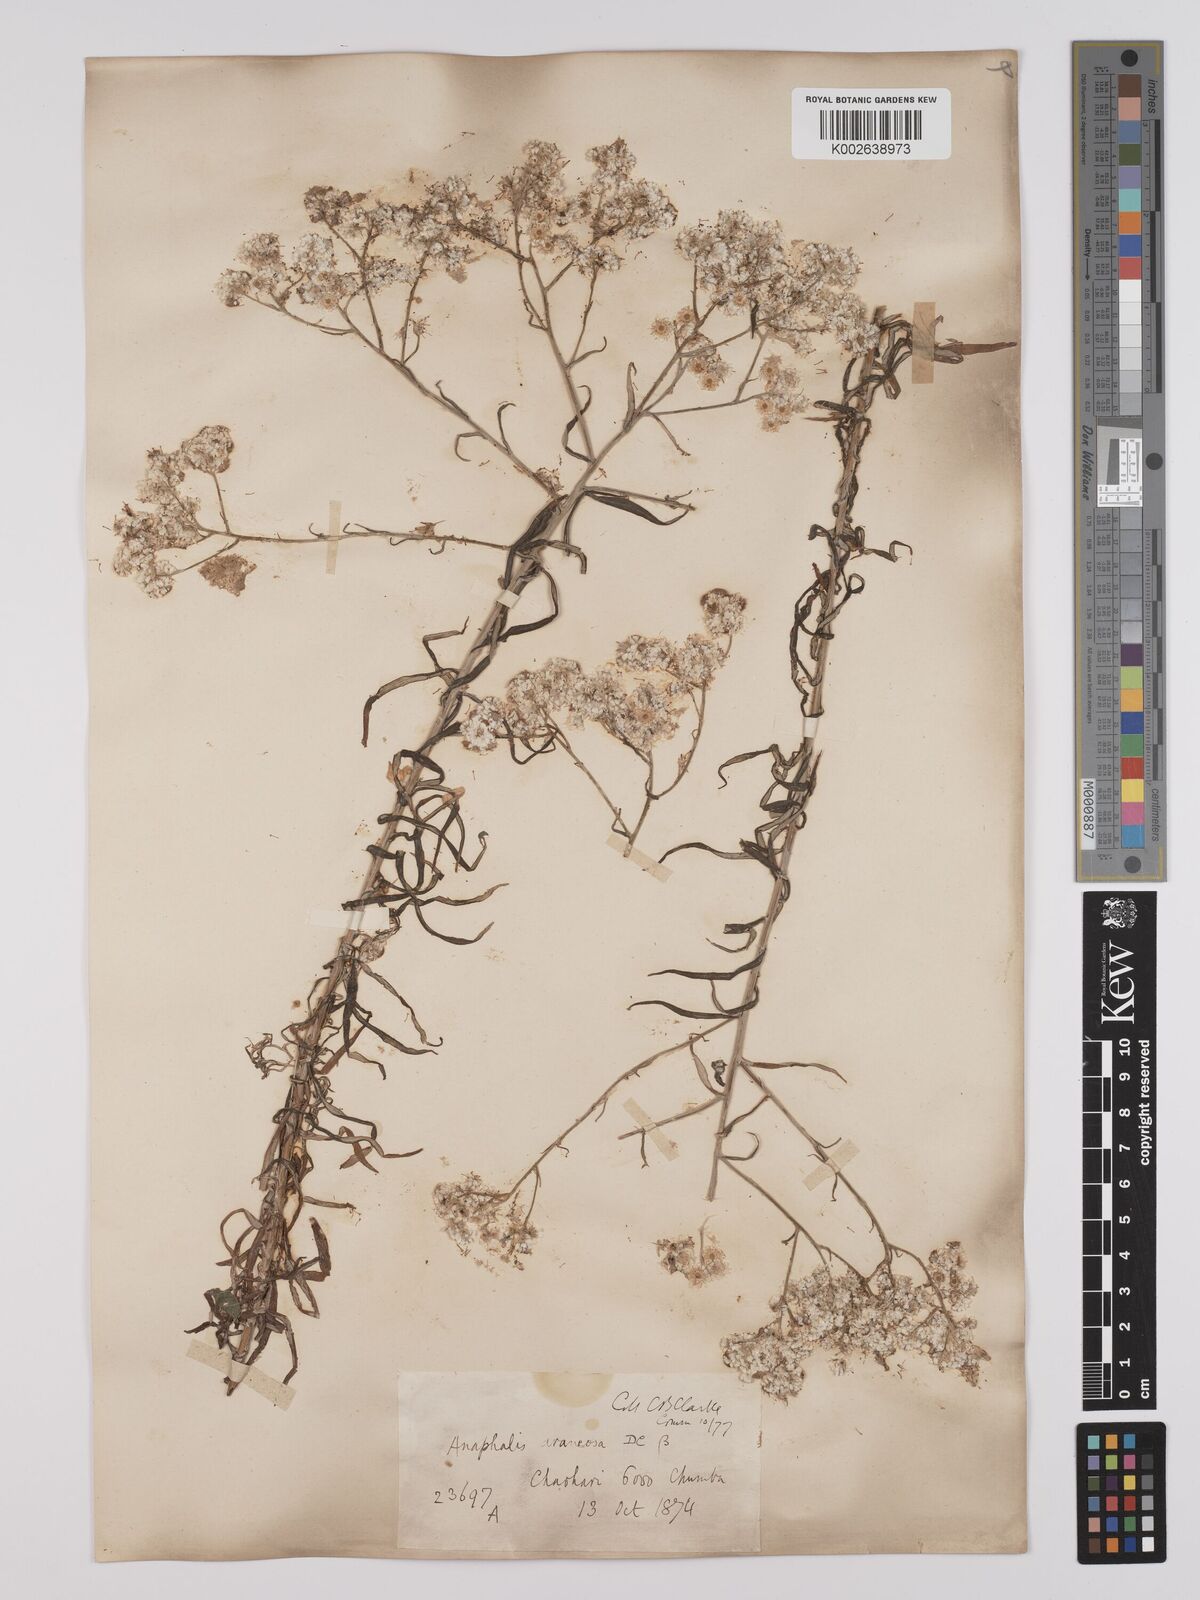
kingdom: Plantae
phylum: Tracheophyta
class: Magnoliopsida
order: Asterales
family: Asteraceae
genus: Anaphalis
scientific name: Anaphalis busua
